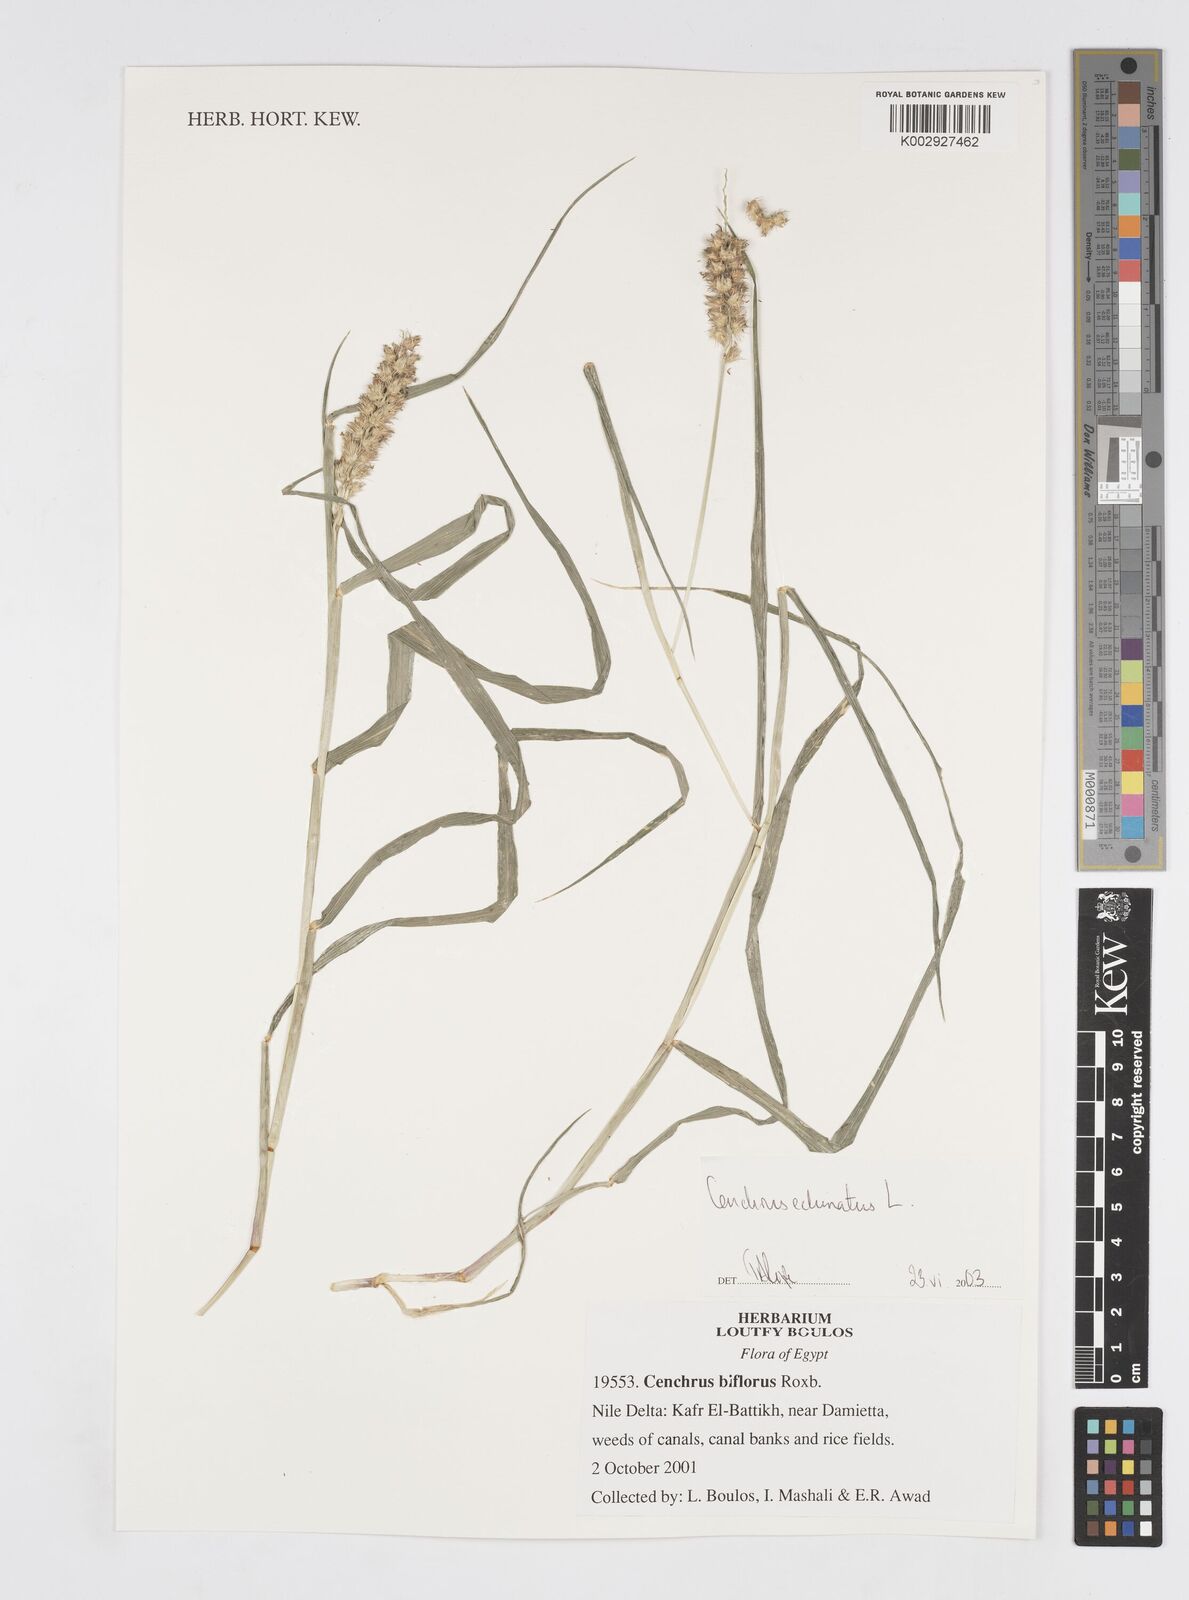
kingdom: Plantae
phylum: Tracheophyta
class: Liliopsida
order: Poales
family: Poaceae
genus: Cenchrus
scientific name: Cenchrus echinatus
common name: Southern sandbur
